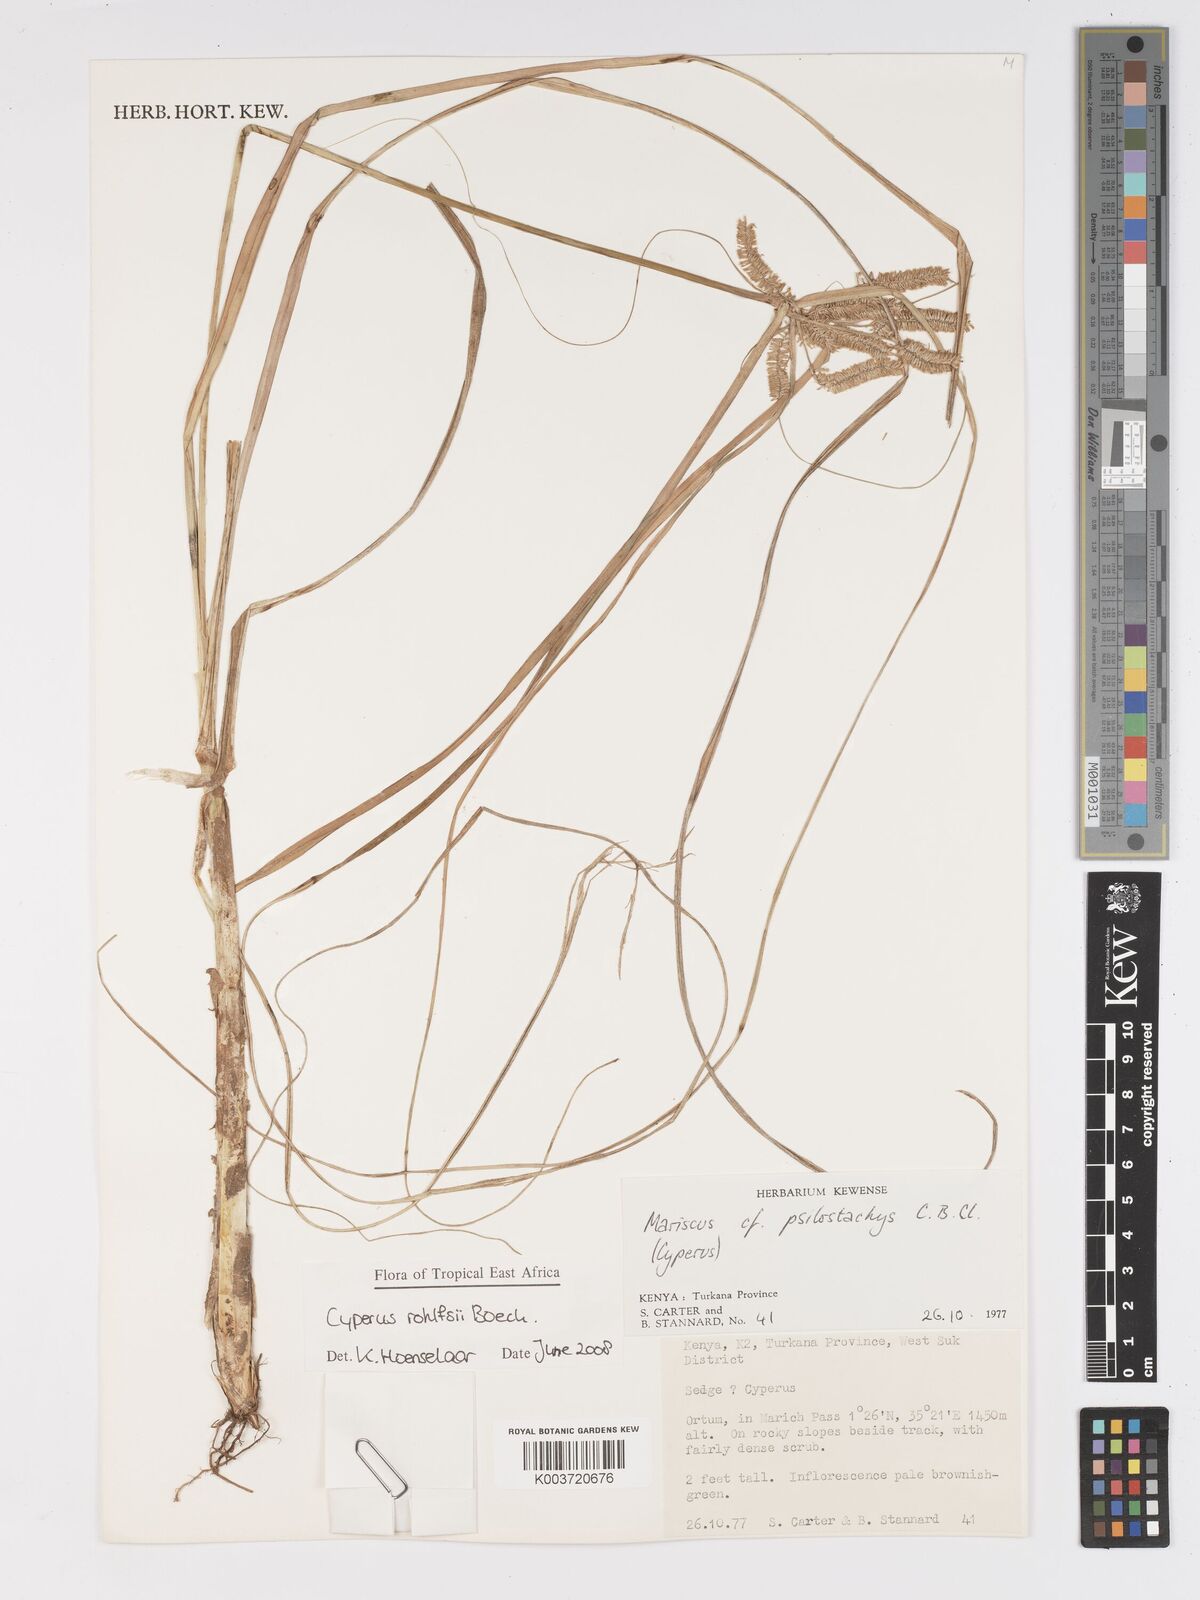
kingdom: Plantae
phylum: Tracheophyta
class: Liliopsida
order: Poales
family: Cyperaceae
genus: Cyperus
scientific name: Cyperus rohlfsii
